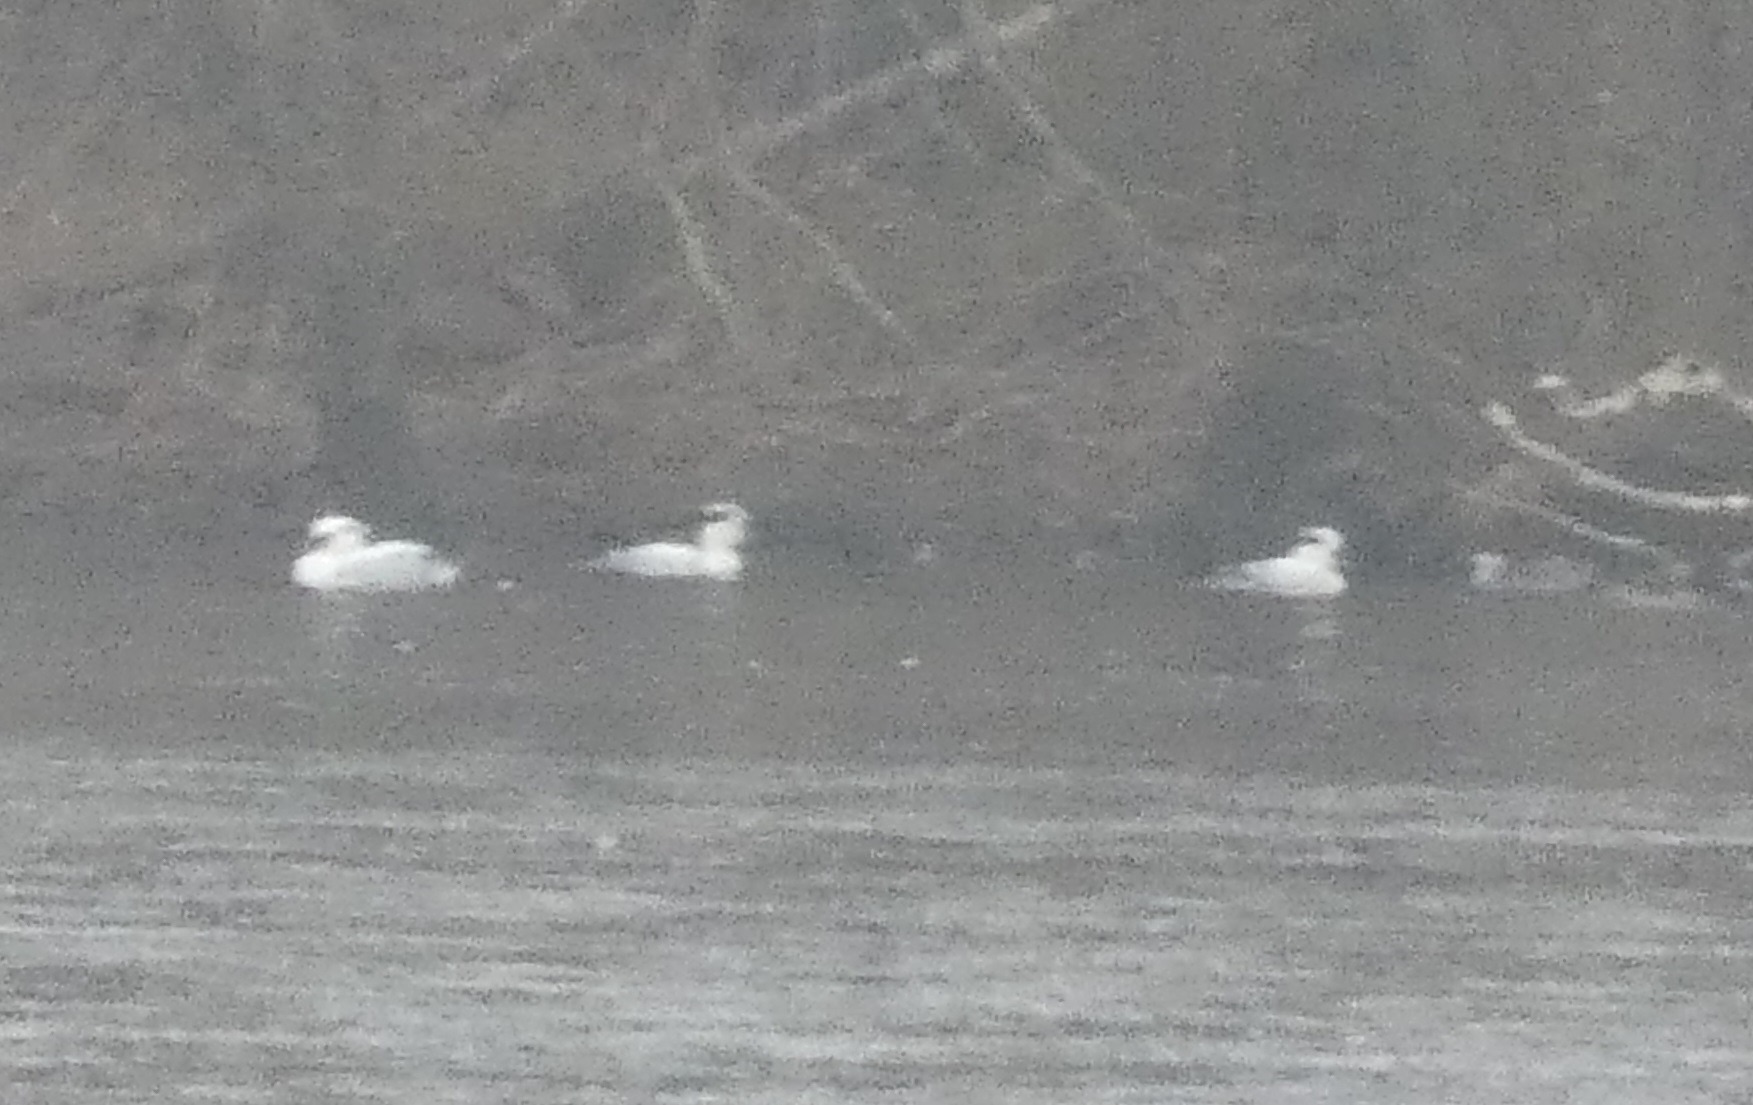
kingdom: Animalia
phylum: Chordata
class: Aves
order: Anseriformes
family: Anatidae
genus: Mergellus
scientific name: Mergellus albellus
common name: Lille skallesluger
